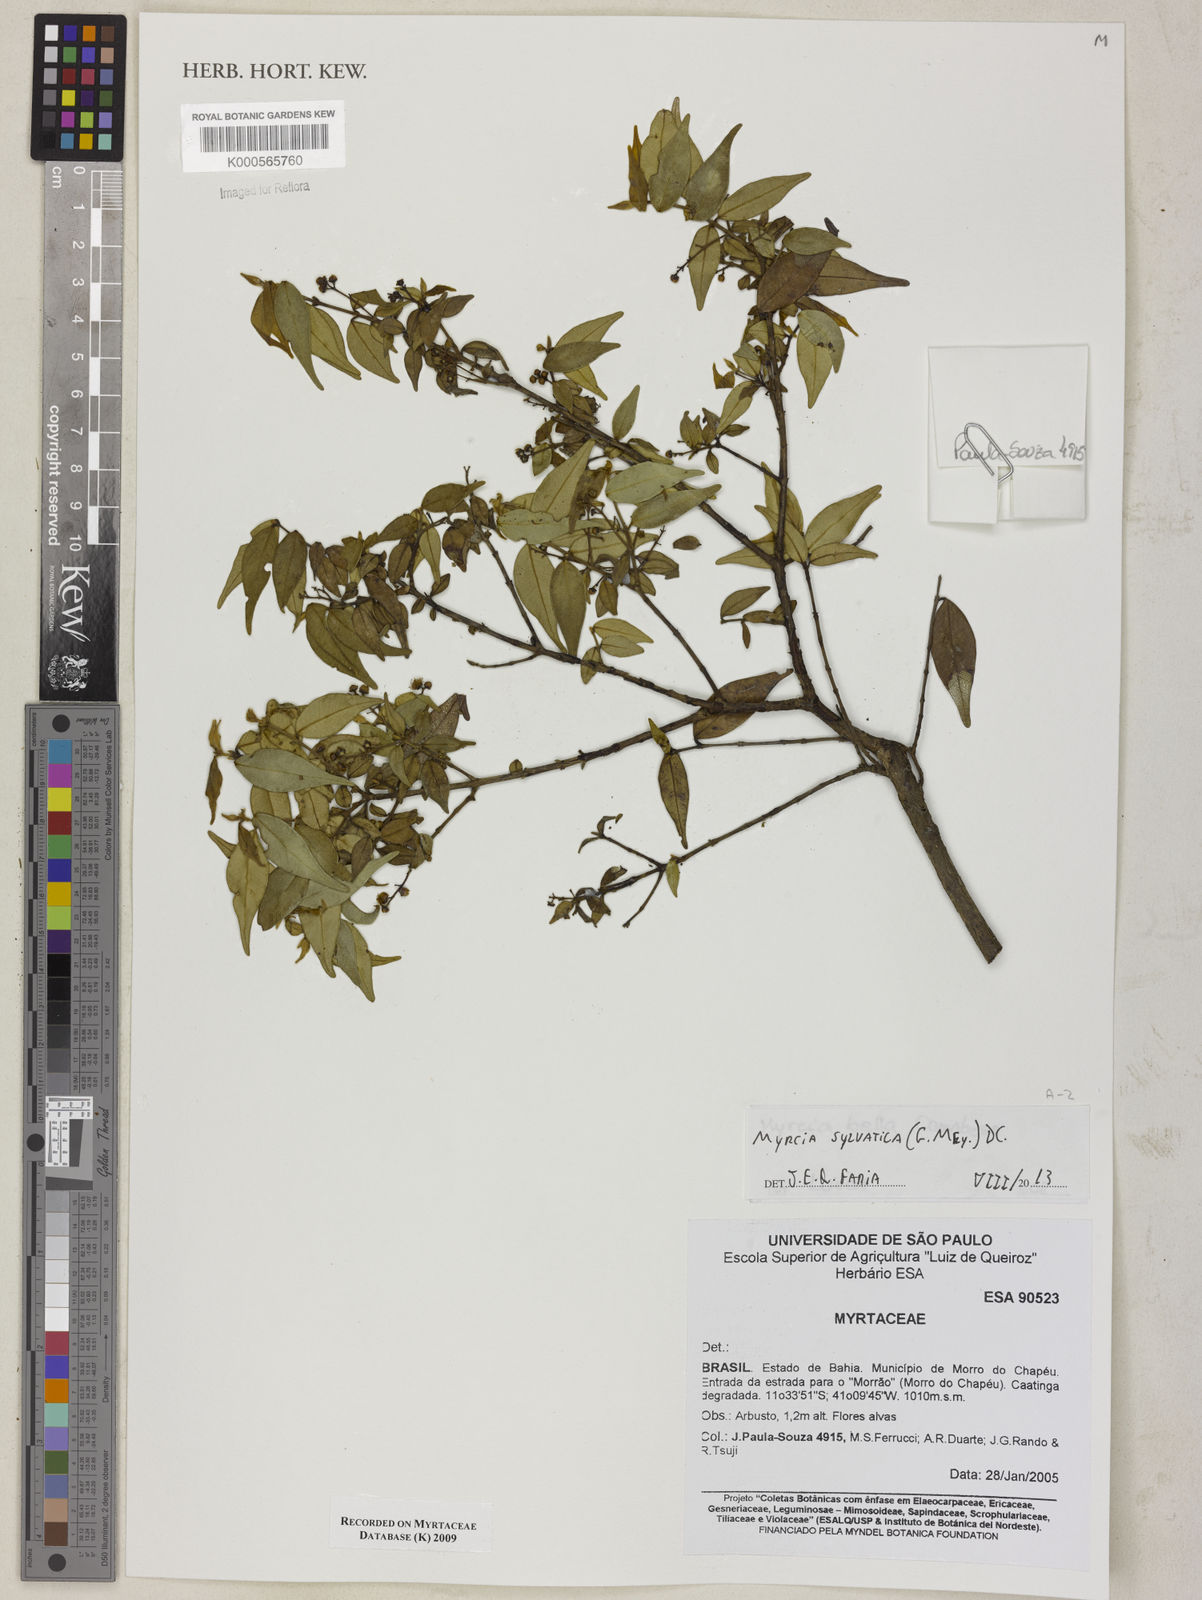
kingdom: Plantae
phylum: Tracheophyta
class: Magnoliopsida
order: Myrtales
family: Myrtaceae
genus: Myrcia
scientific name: Myrcia bella
